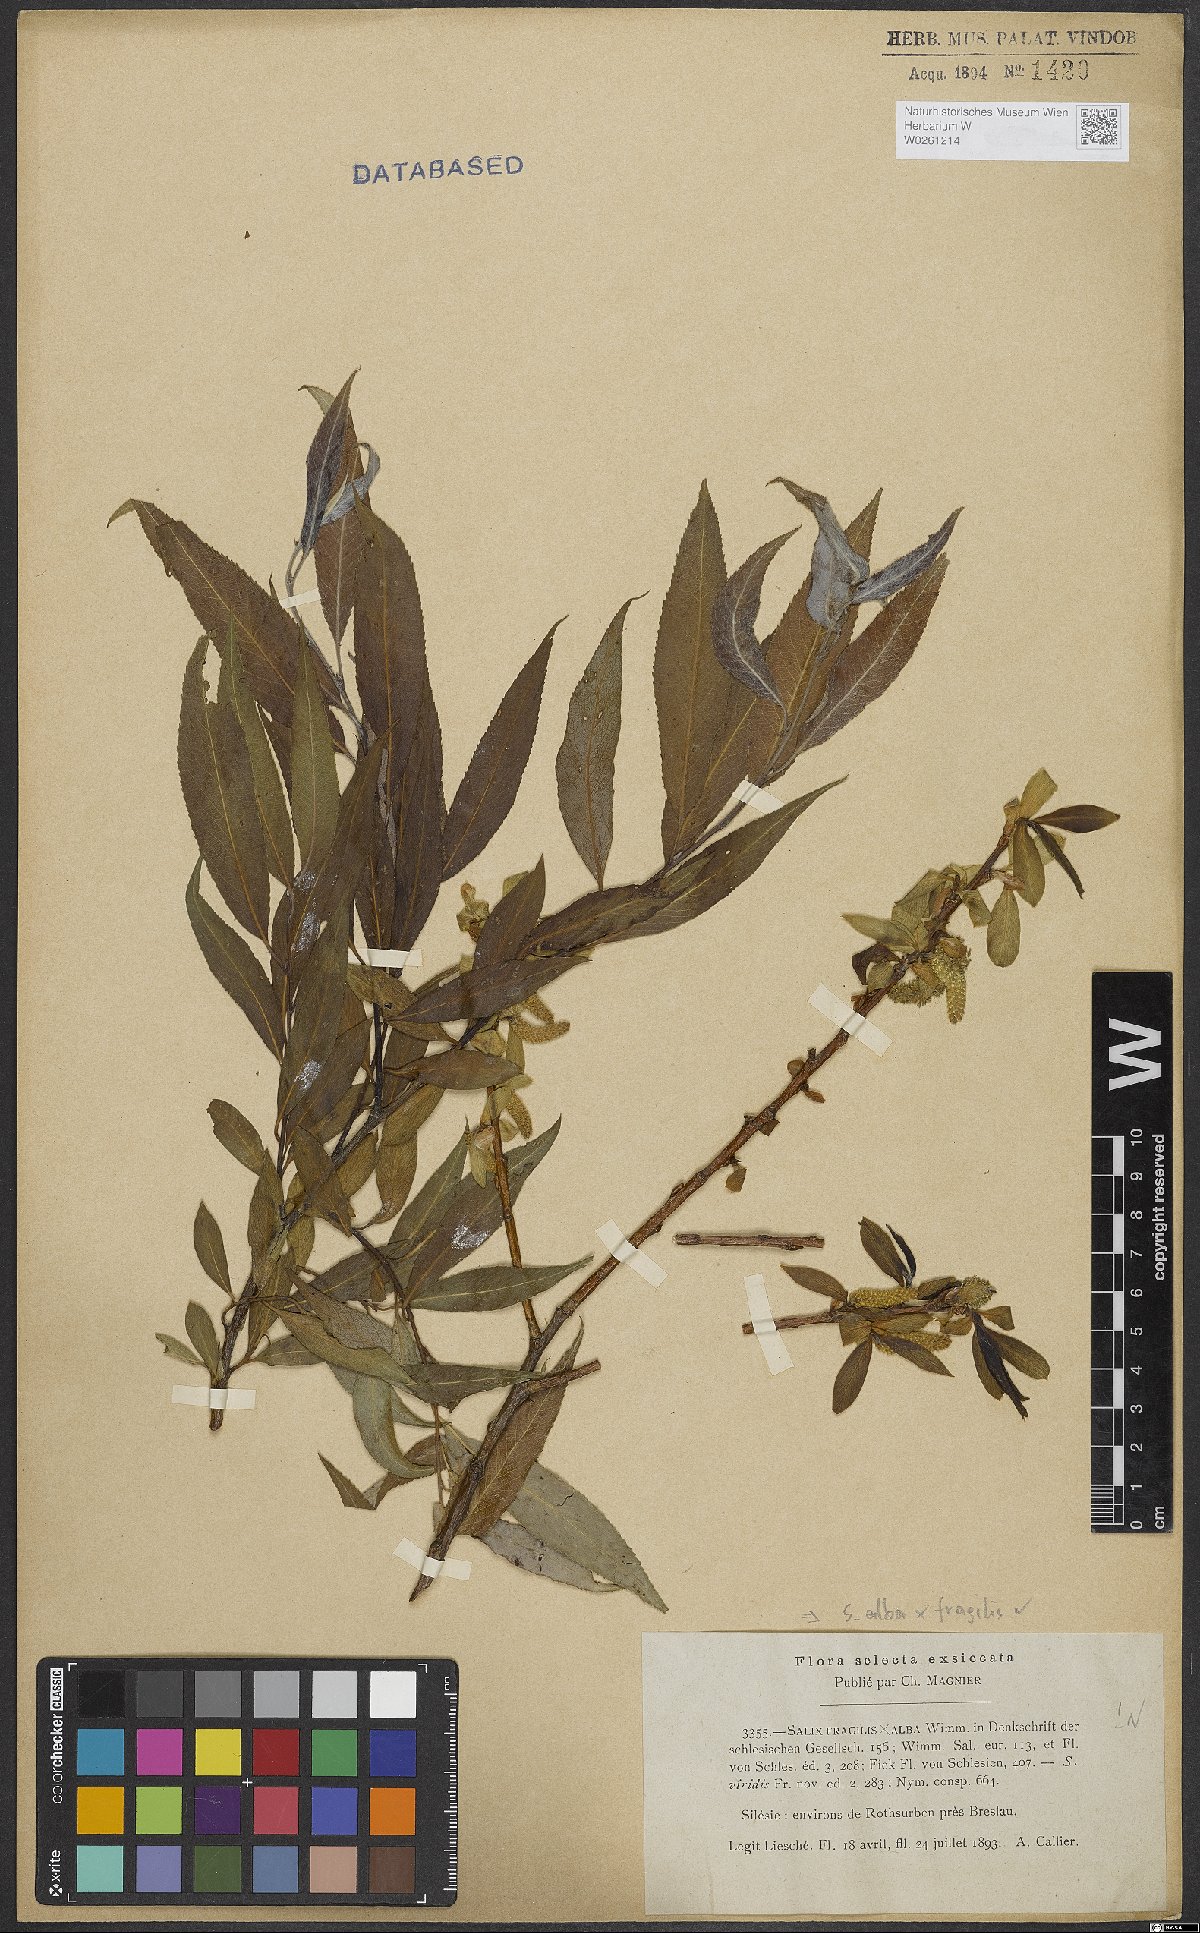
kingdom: Plantae
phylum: Tracheophyta
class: Magnoliopsida
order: Malpighiales
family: Salicaceae
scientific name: Salicaceae
